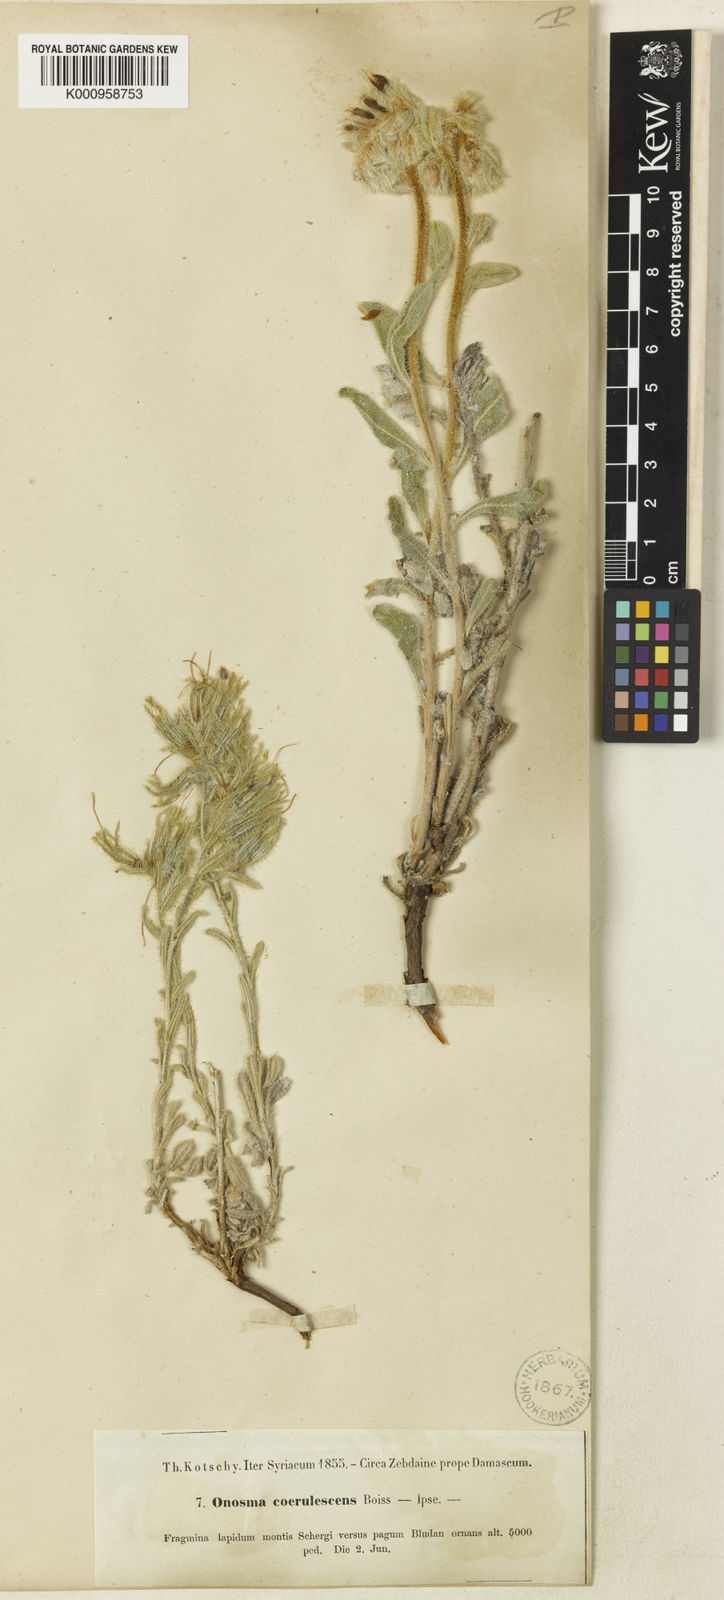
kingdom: Plantae
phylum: Tracheophyta
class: Magnoliopsida
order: Boraginales
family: Boraginaceae
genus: Onosma
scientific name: Onosma caerulescens
